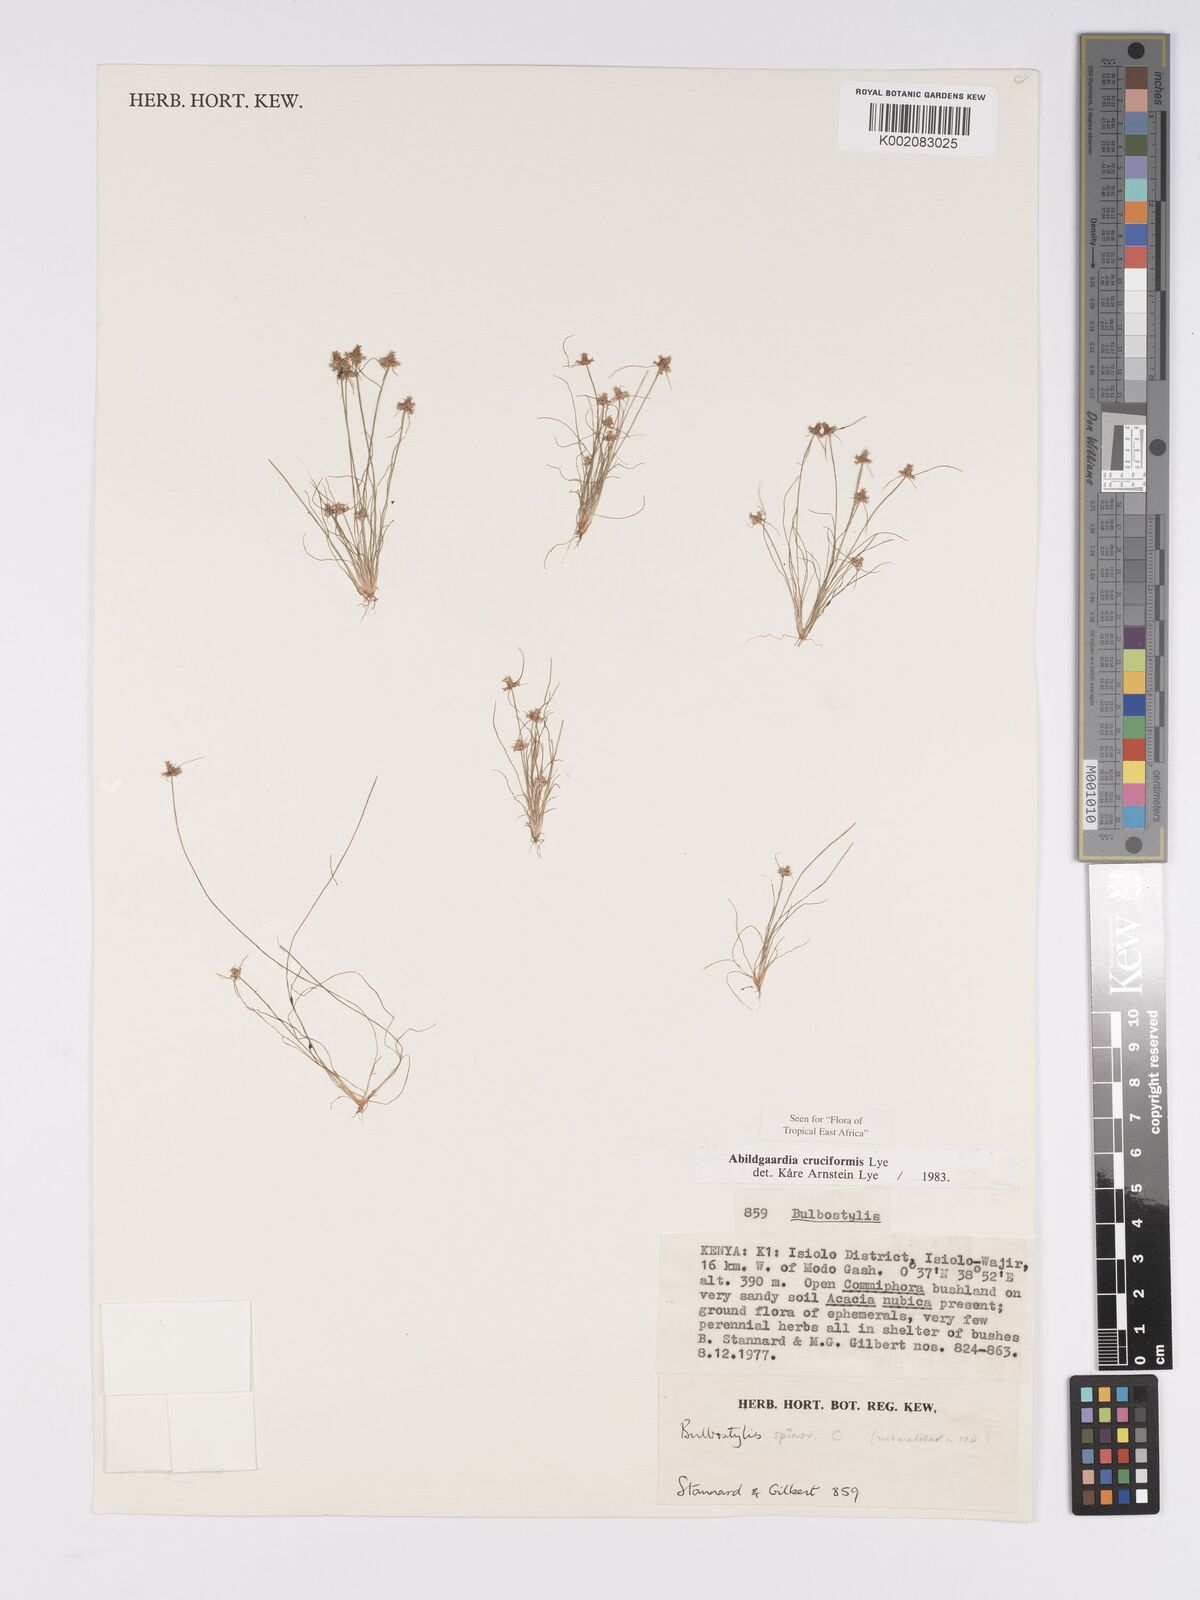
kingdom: Plantae
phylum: Tracheophyta
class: Liliopsida
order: Poales
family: Cyperaceae
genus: Bulbostylis
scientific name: Bulbostylis cruciformis
